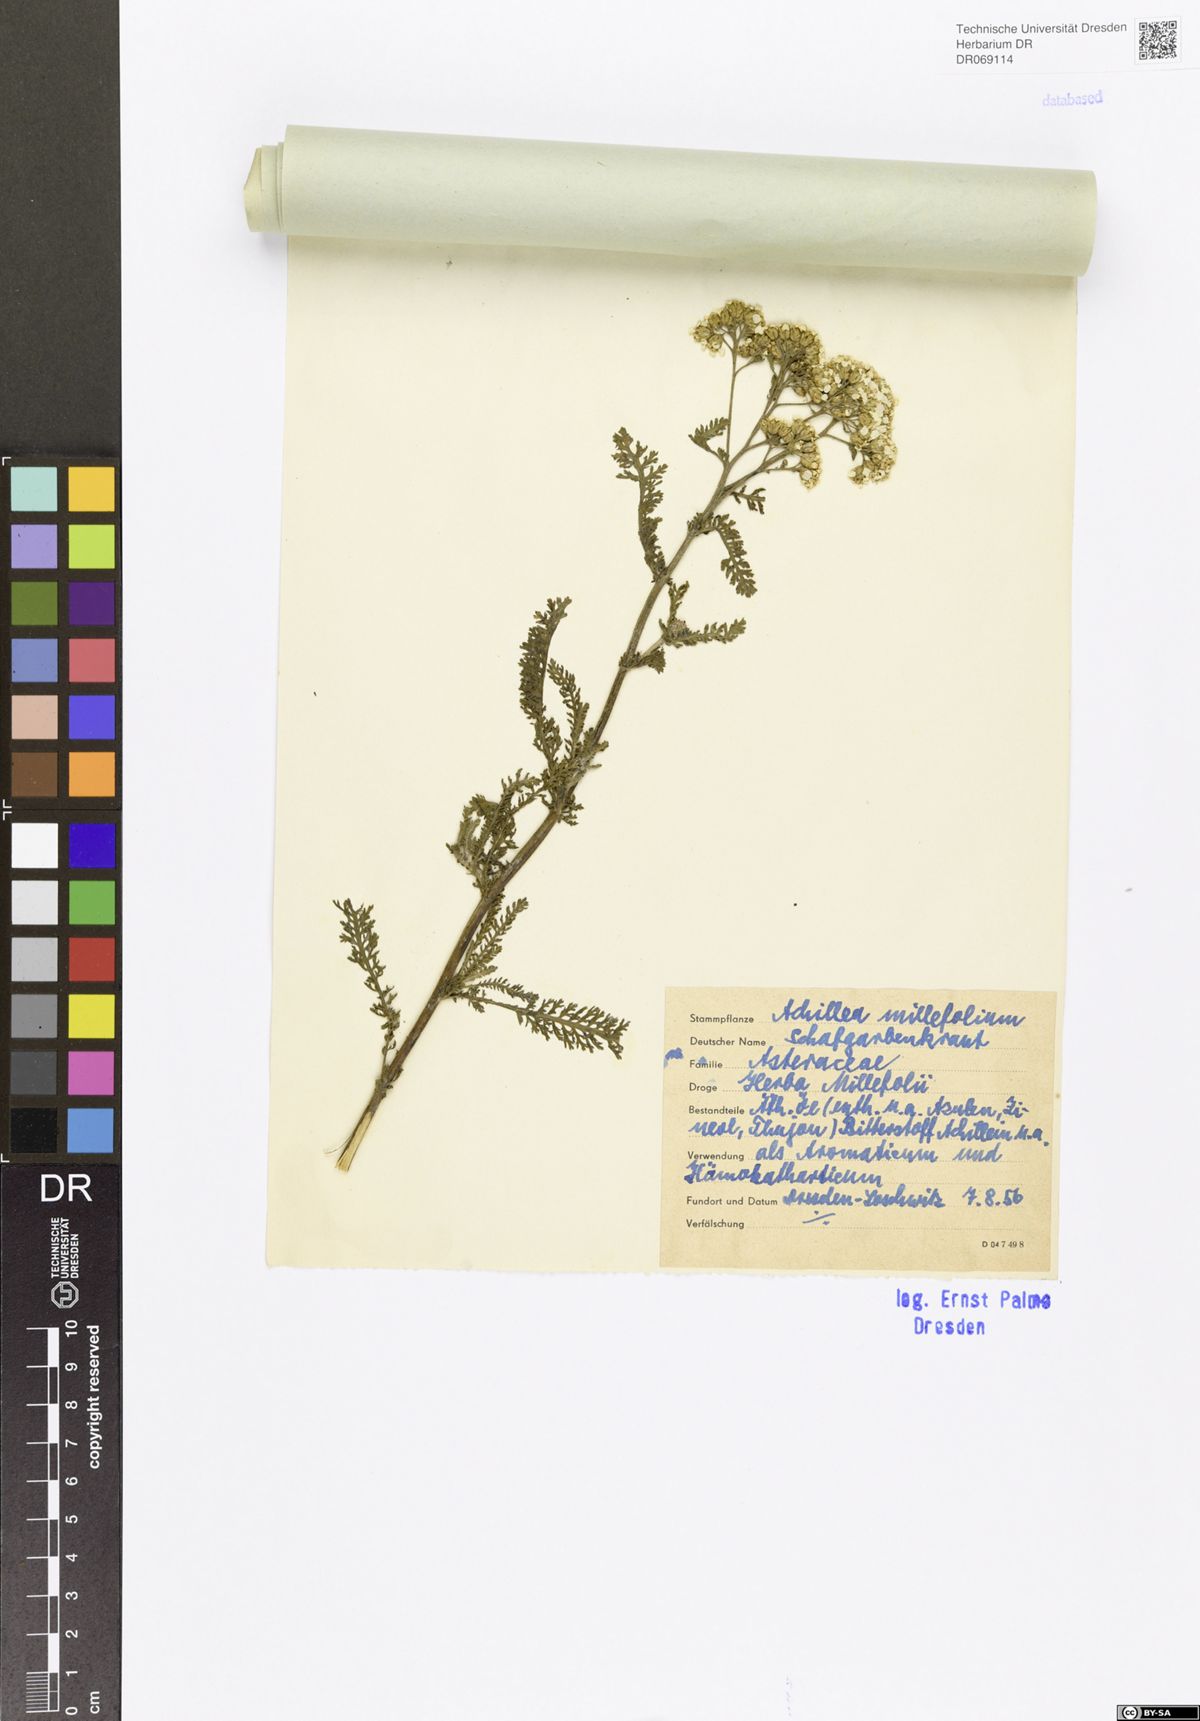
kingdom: Plantae
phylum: Tracheophyta
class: Magnoliopsida
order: Asterales
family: Asteraceae
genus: Achillea
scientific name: Achillea millefolium
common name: Yarrow
